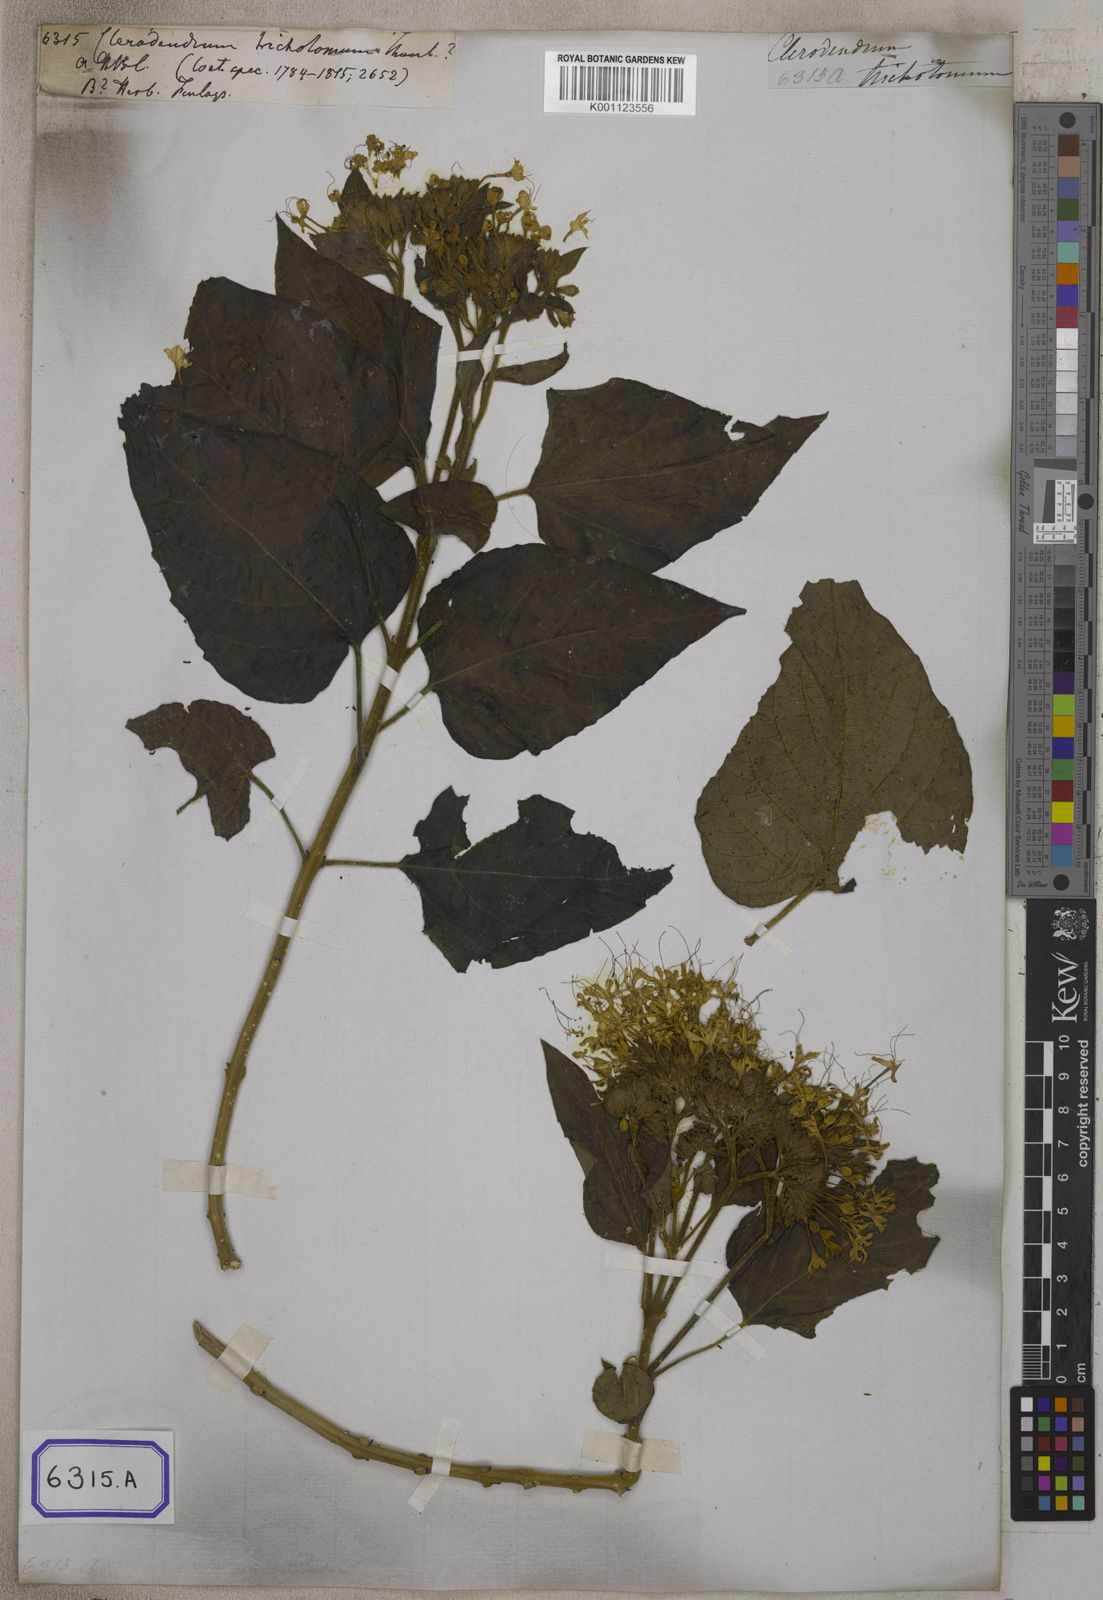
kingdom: Plantae
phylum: Tracheophyta
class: Magnoliopsida
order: Lamiales
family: Lamiaceae
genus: Clerodendrum
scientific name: Clerodendrum
